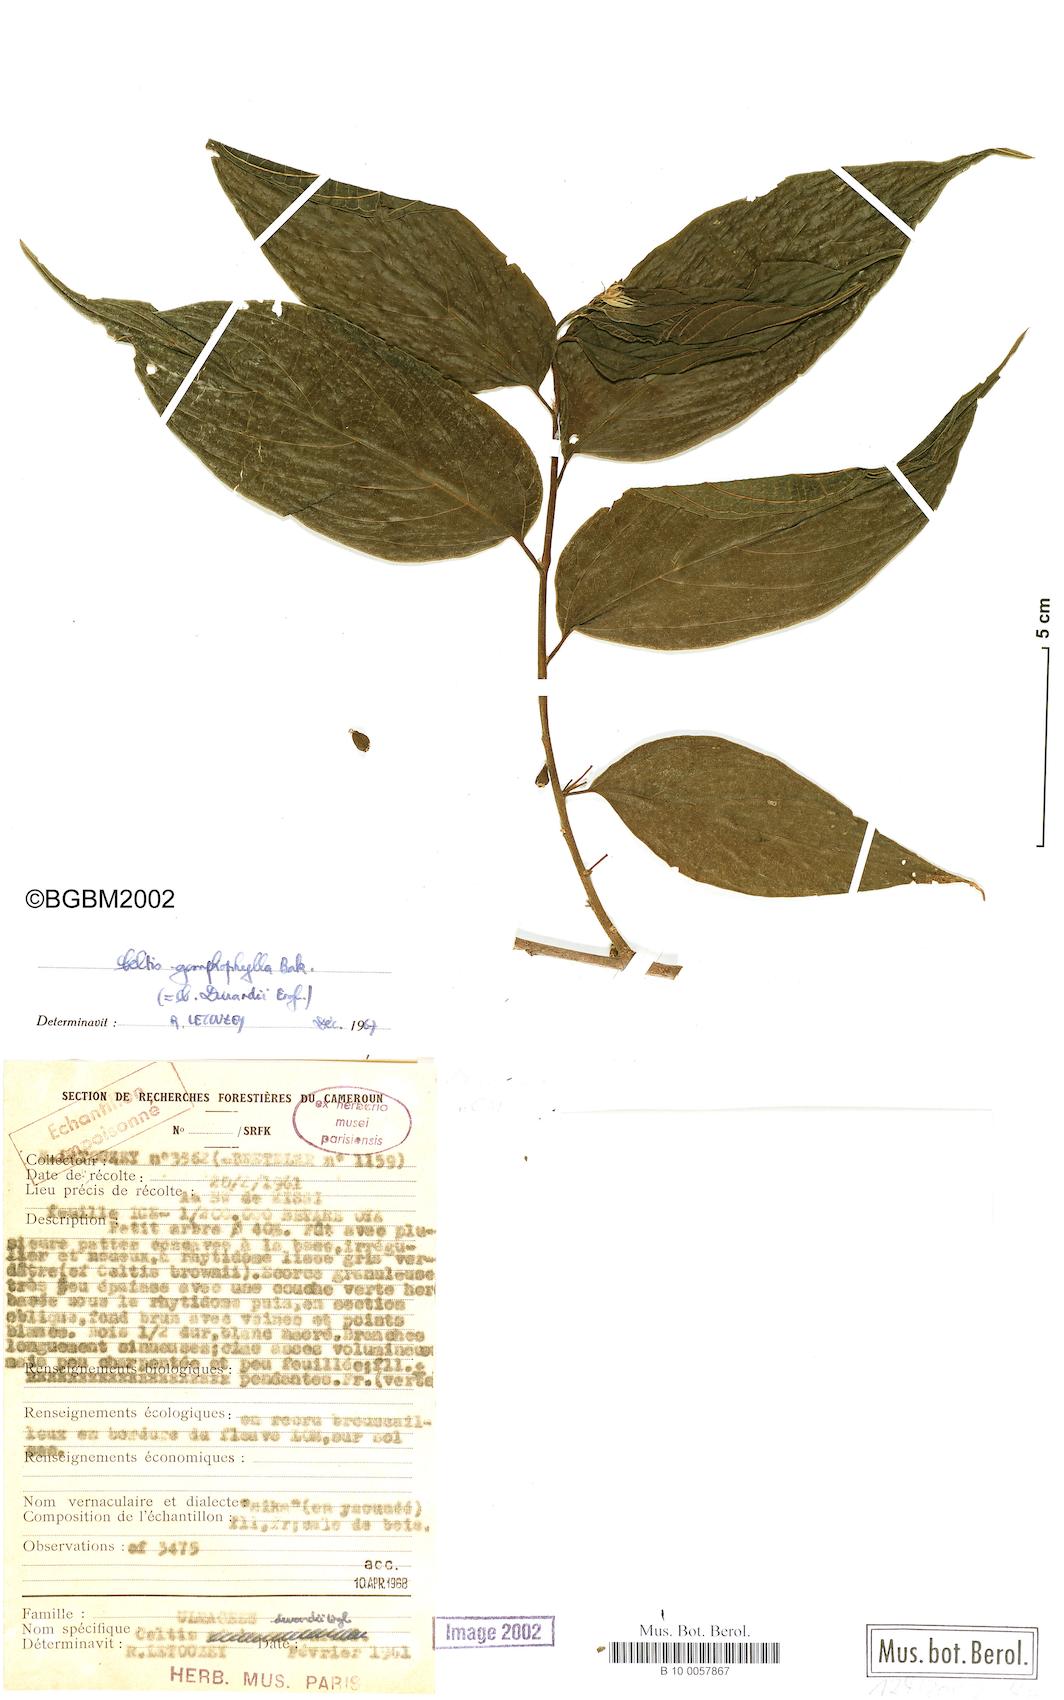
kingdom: Plantae
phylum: Tracheophyta
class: Magnoliopsida
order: Rosales
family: Cannabaceae
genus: Celtis
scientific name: Celtis gomphophylla
